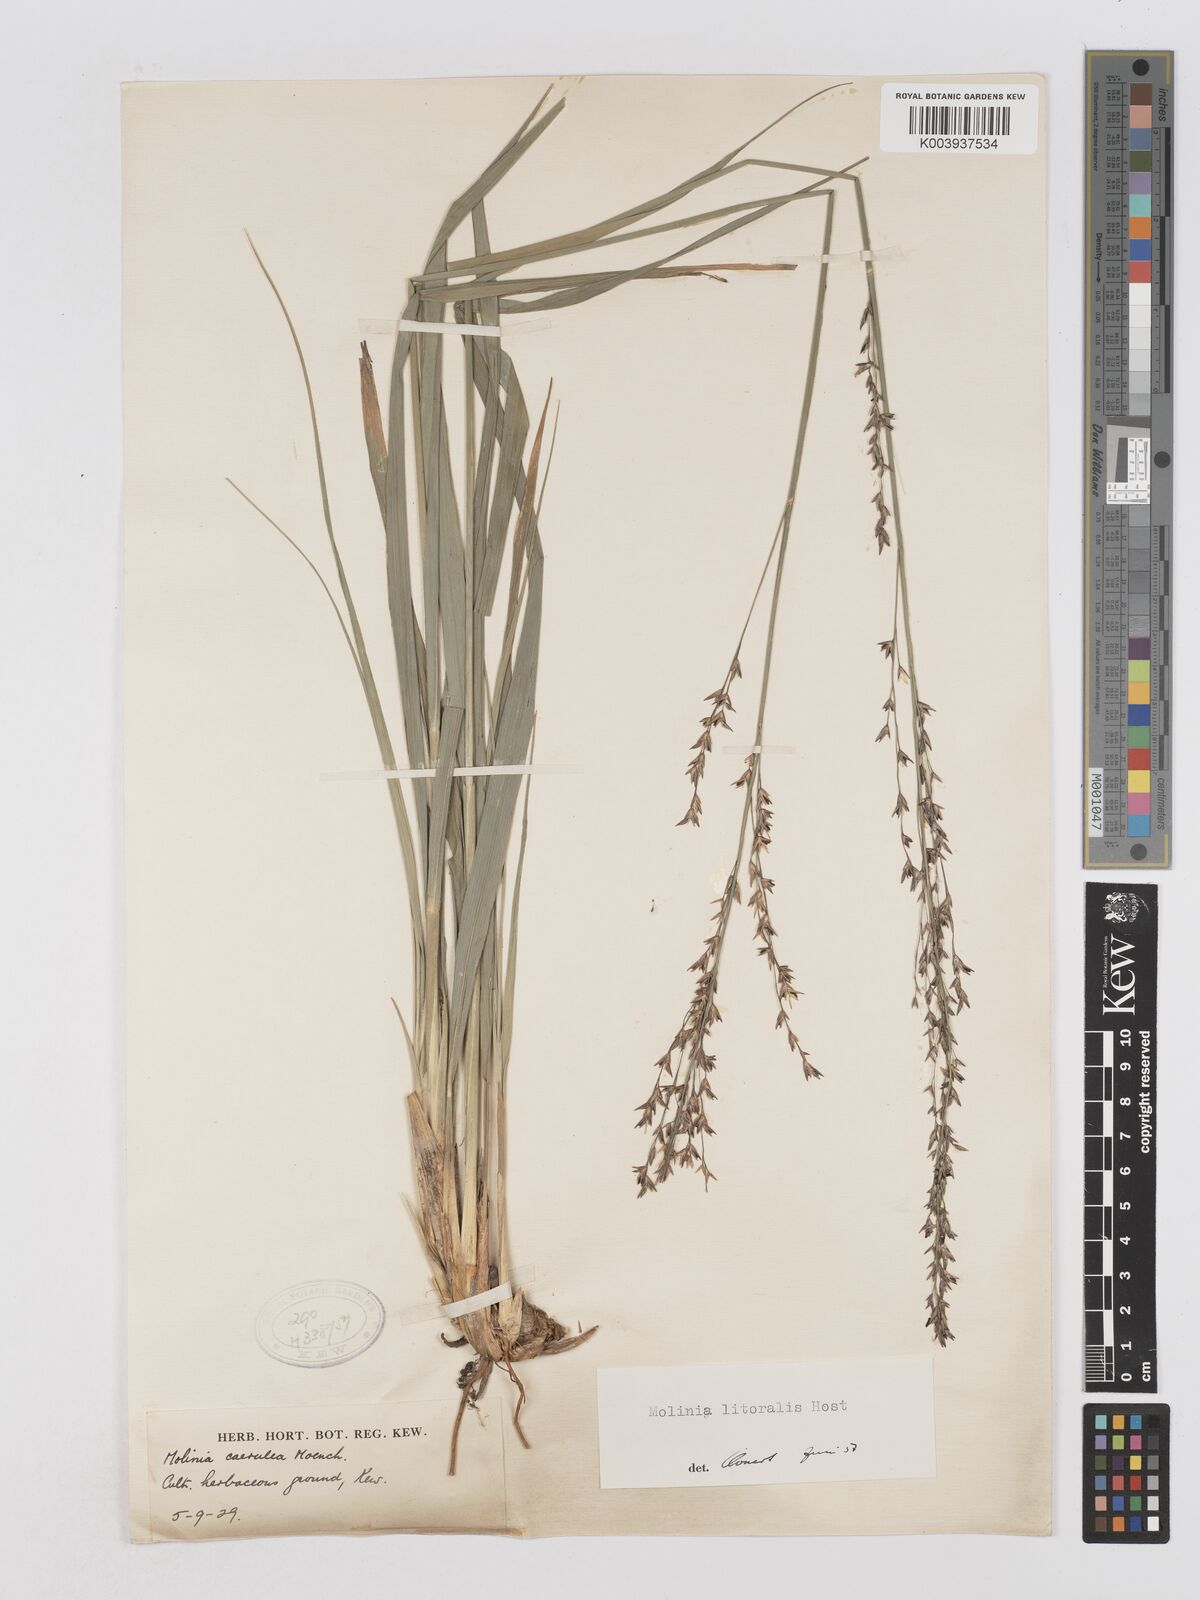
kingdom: Plantae
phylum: Tracheophyta
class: Liliopsida
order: Poales
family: Poaceae
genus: Molinia
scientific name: Molinia caerulea
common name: Purple moor-grass
